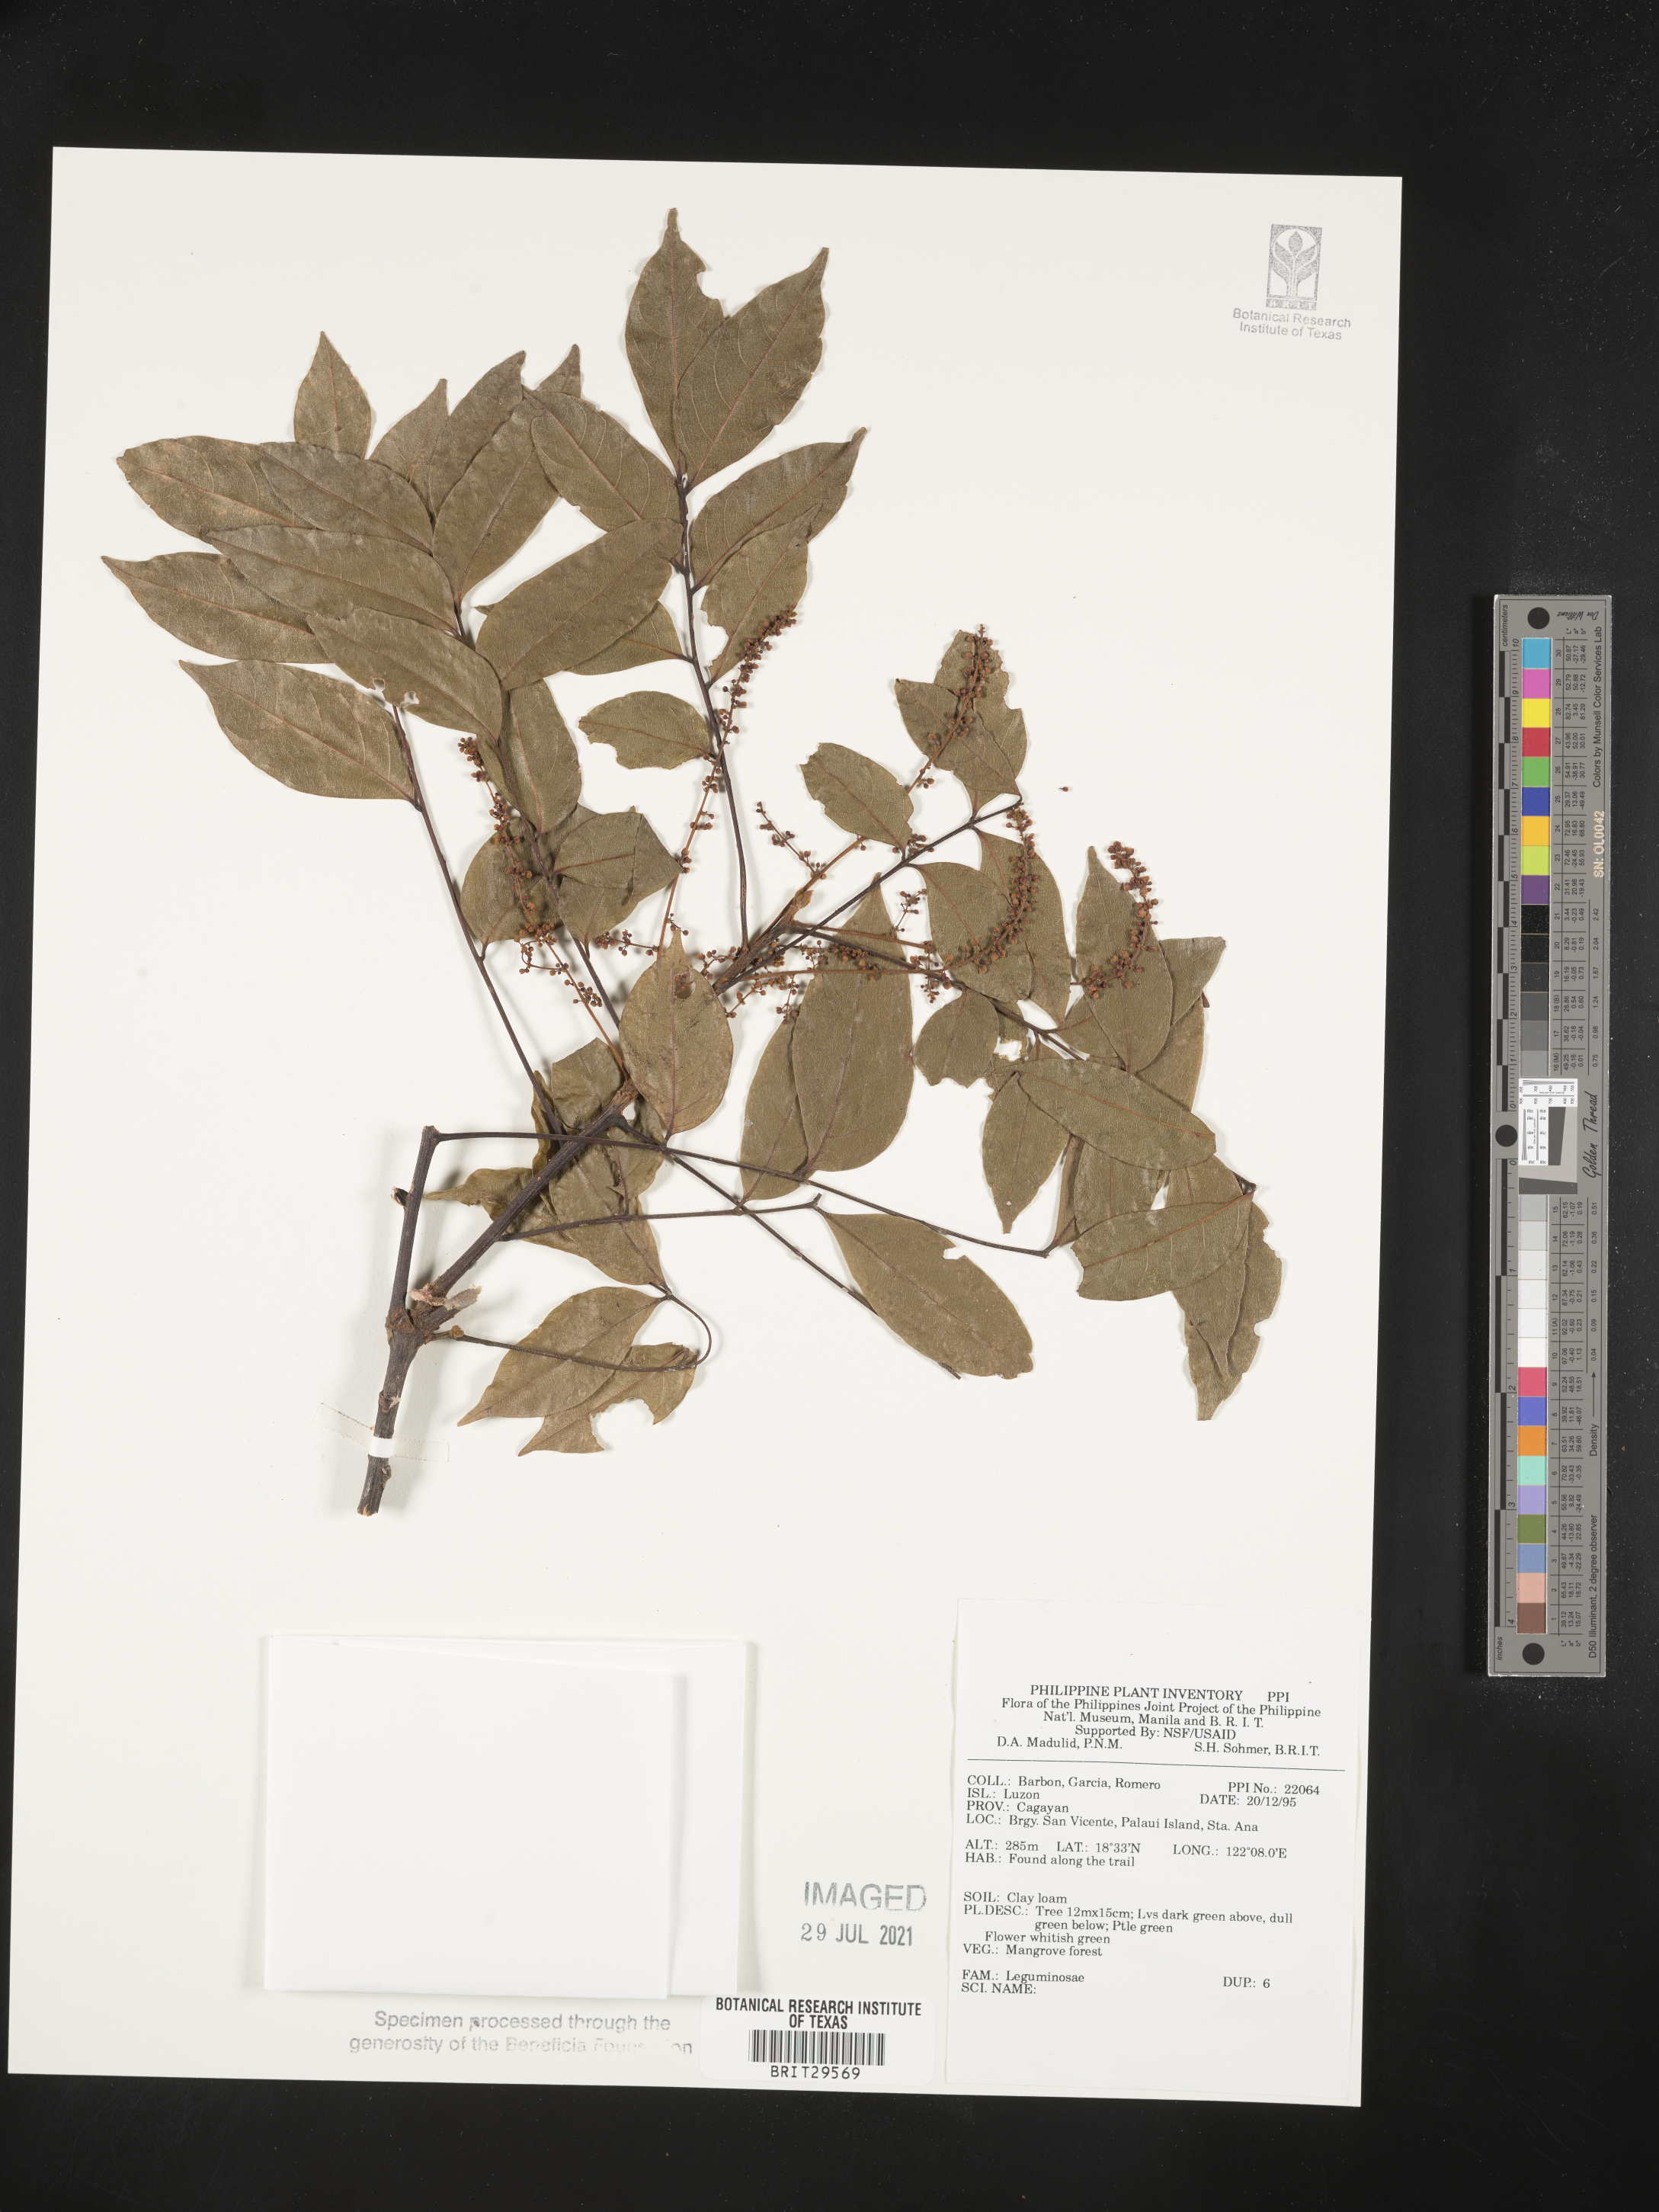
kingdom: Plantae
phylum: Tracheophyta
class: Magnoliopsida
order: Fabales
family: Fabaceae
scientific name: Fabaceae
